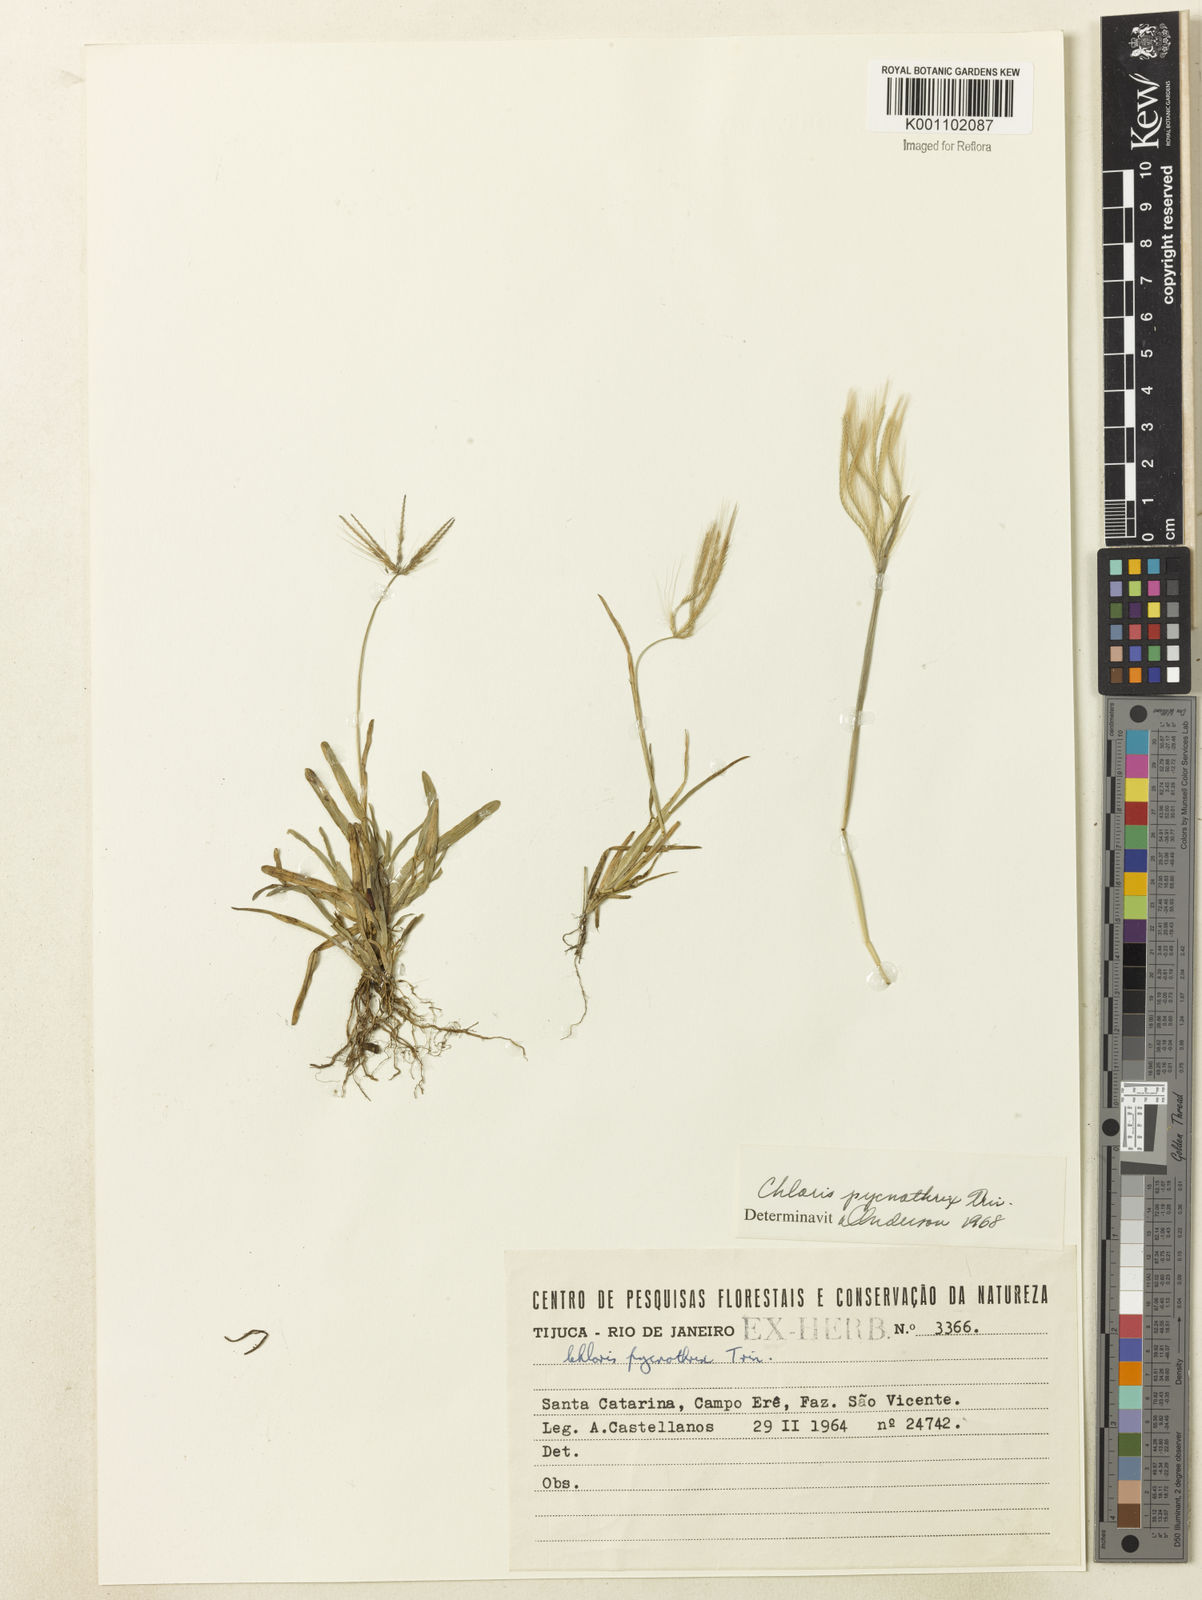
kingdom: Plantae
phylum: Tracheophyta
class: Liliopsida
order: Poales
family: Poaceae
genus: Chloris
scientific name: Chloris pycnothrix
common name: Spiderweb chloris
